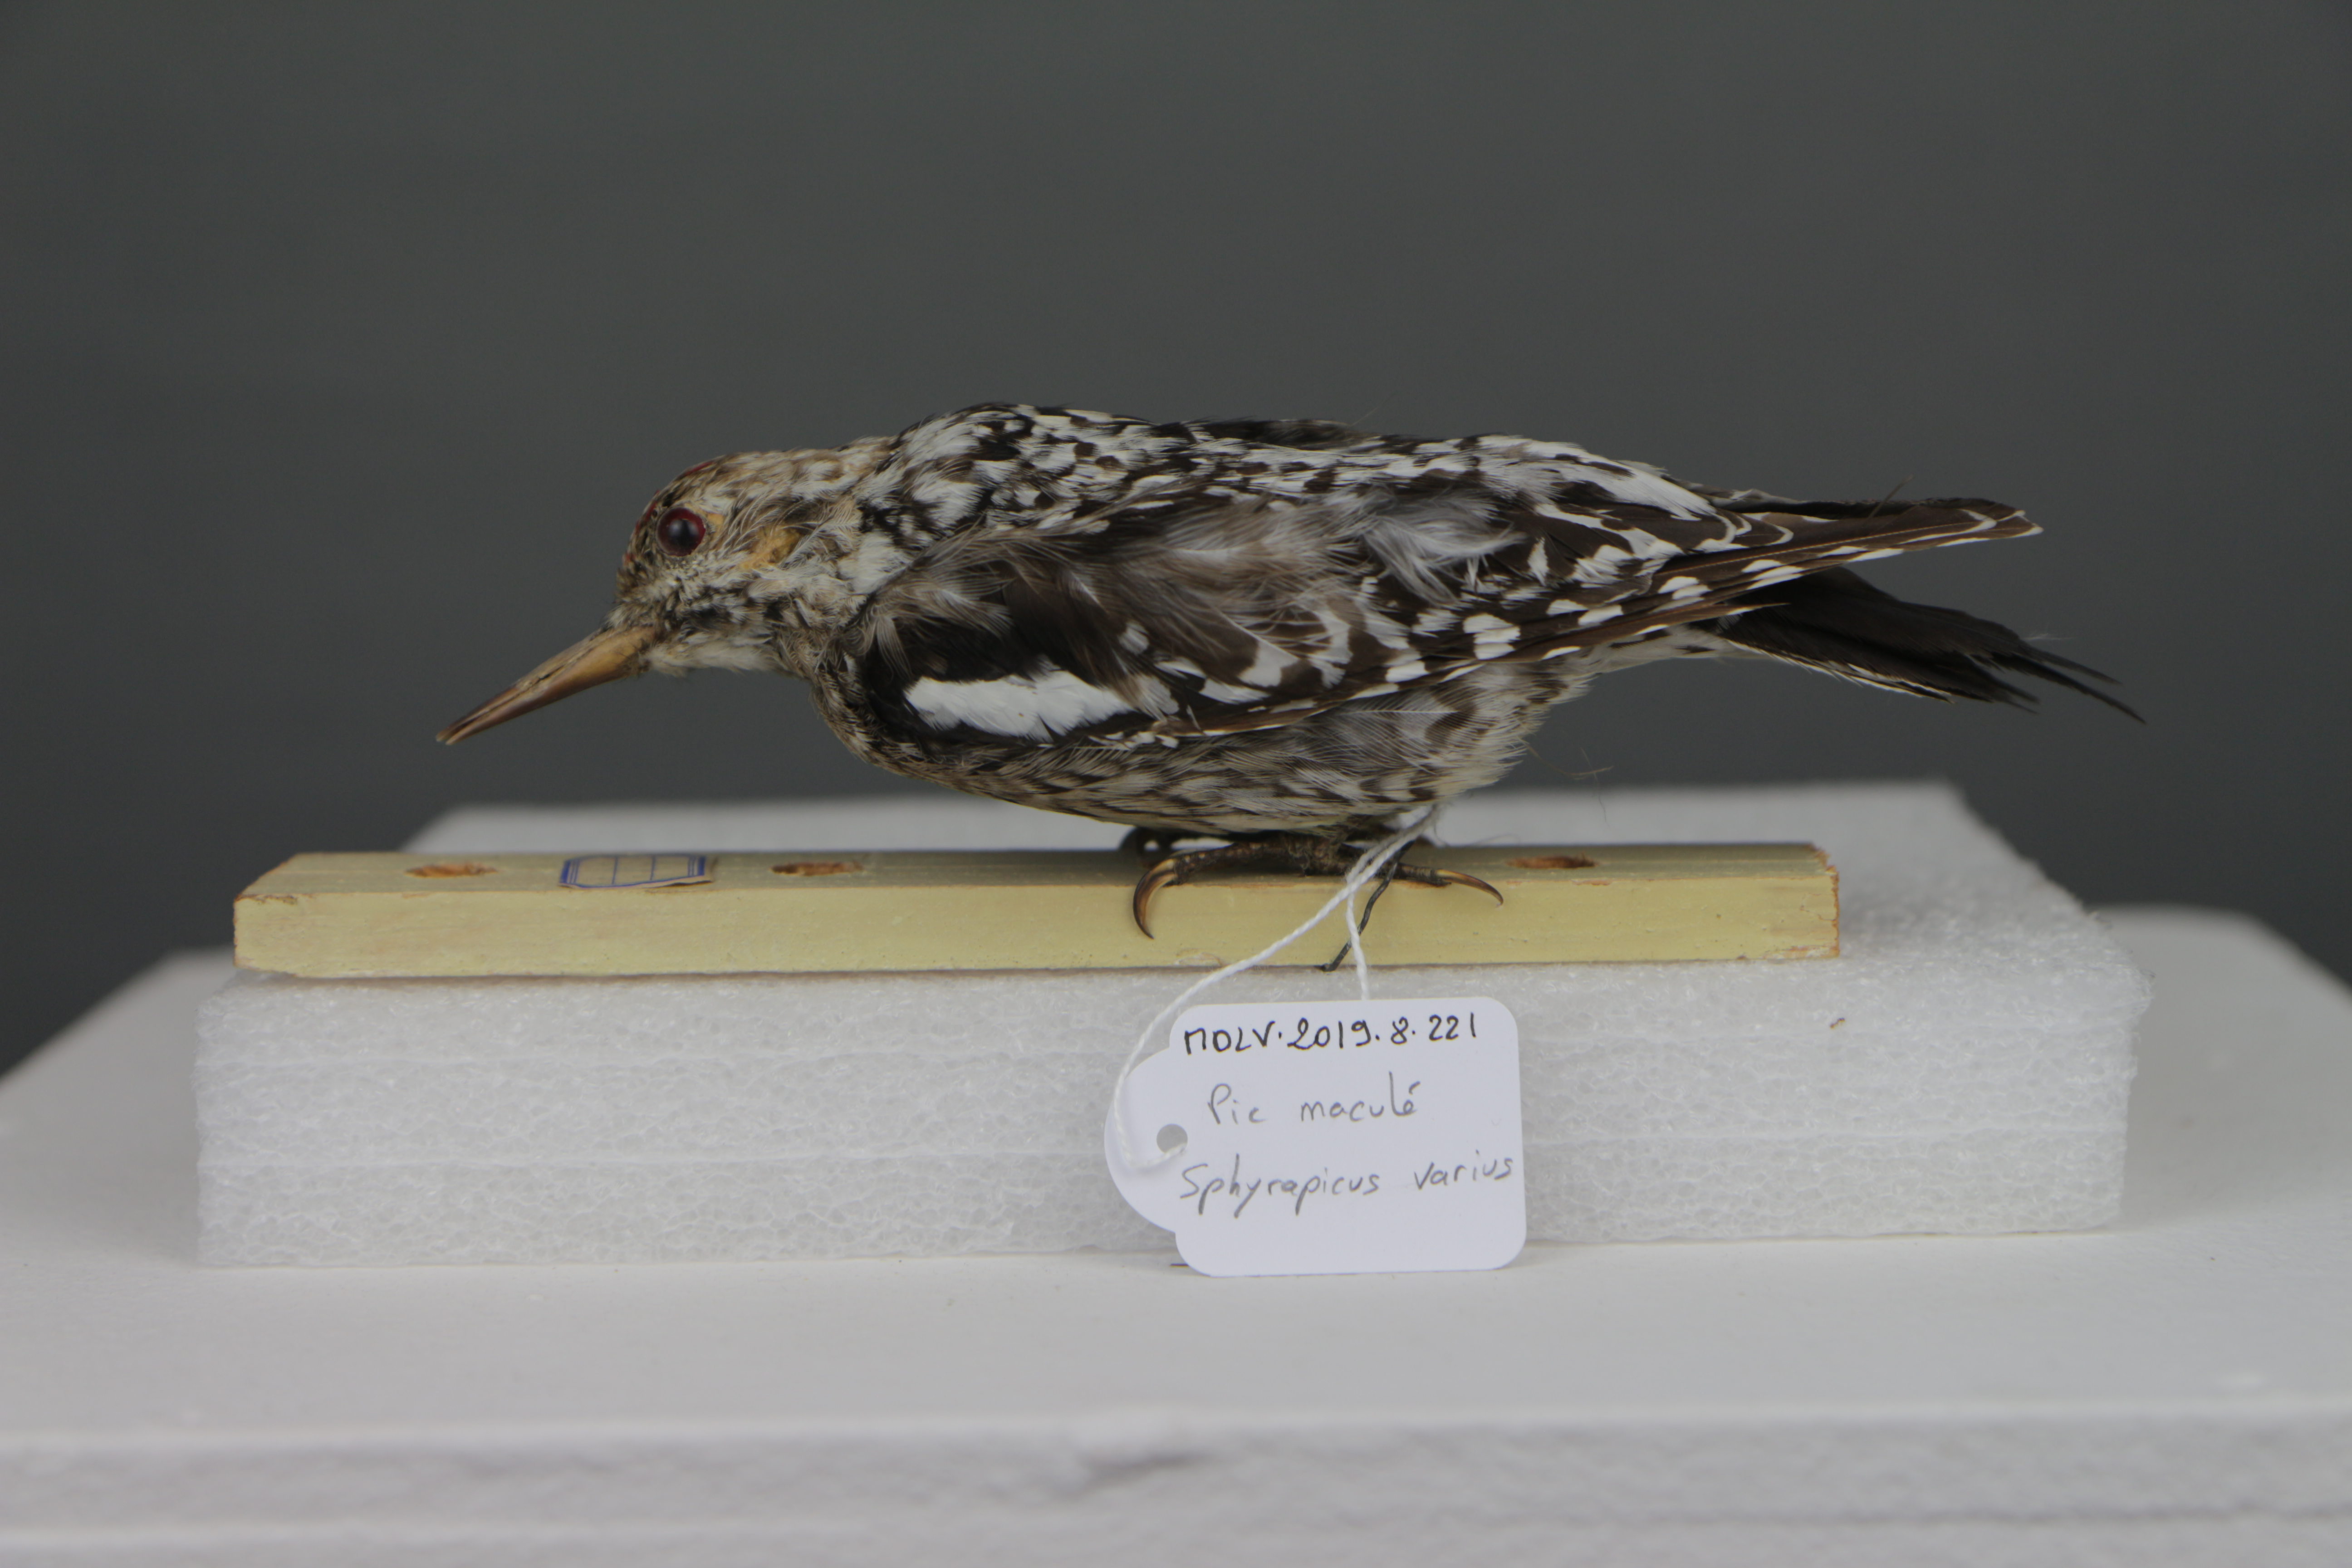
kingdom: Animalia
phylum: Chordata
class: Aves
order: Piciformes
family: Picidae
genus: Sphyrapicus
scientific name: Sphyrapicus varius
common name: Yellow-bellied sapsucker
